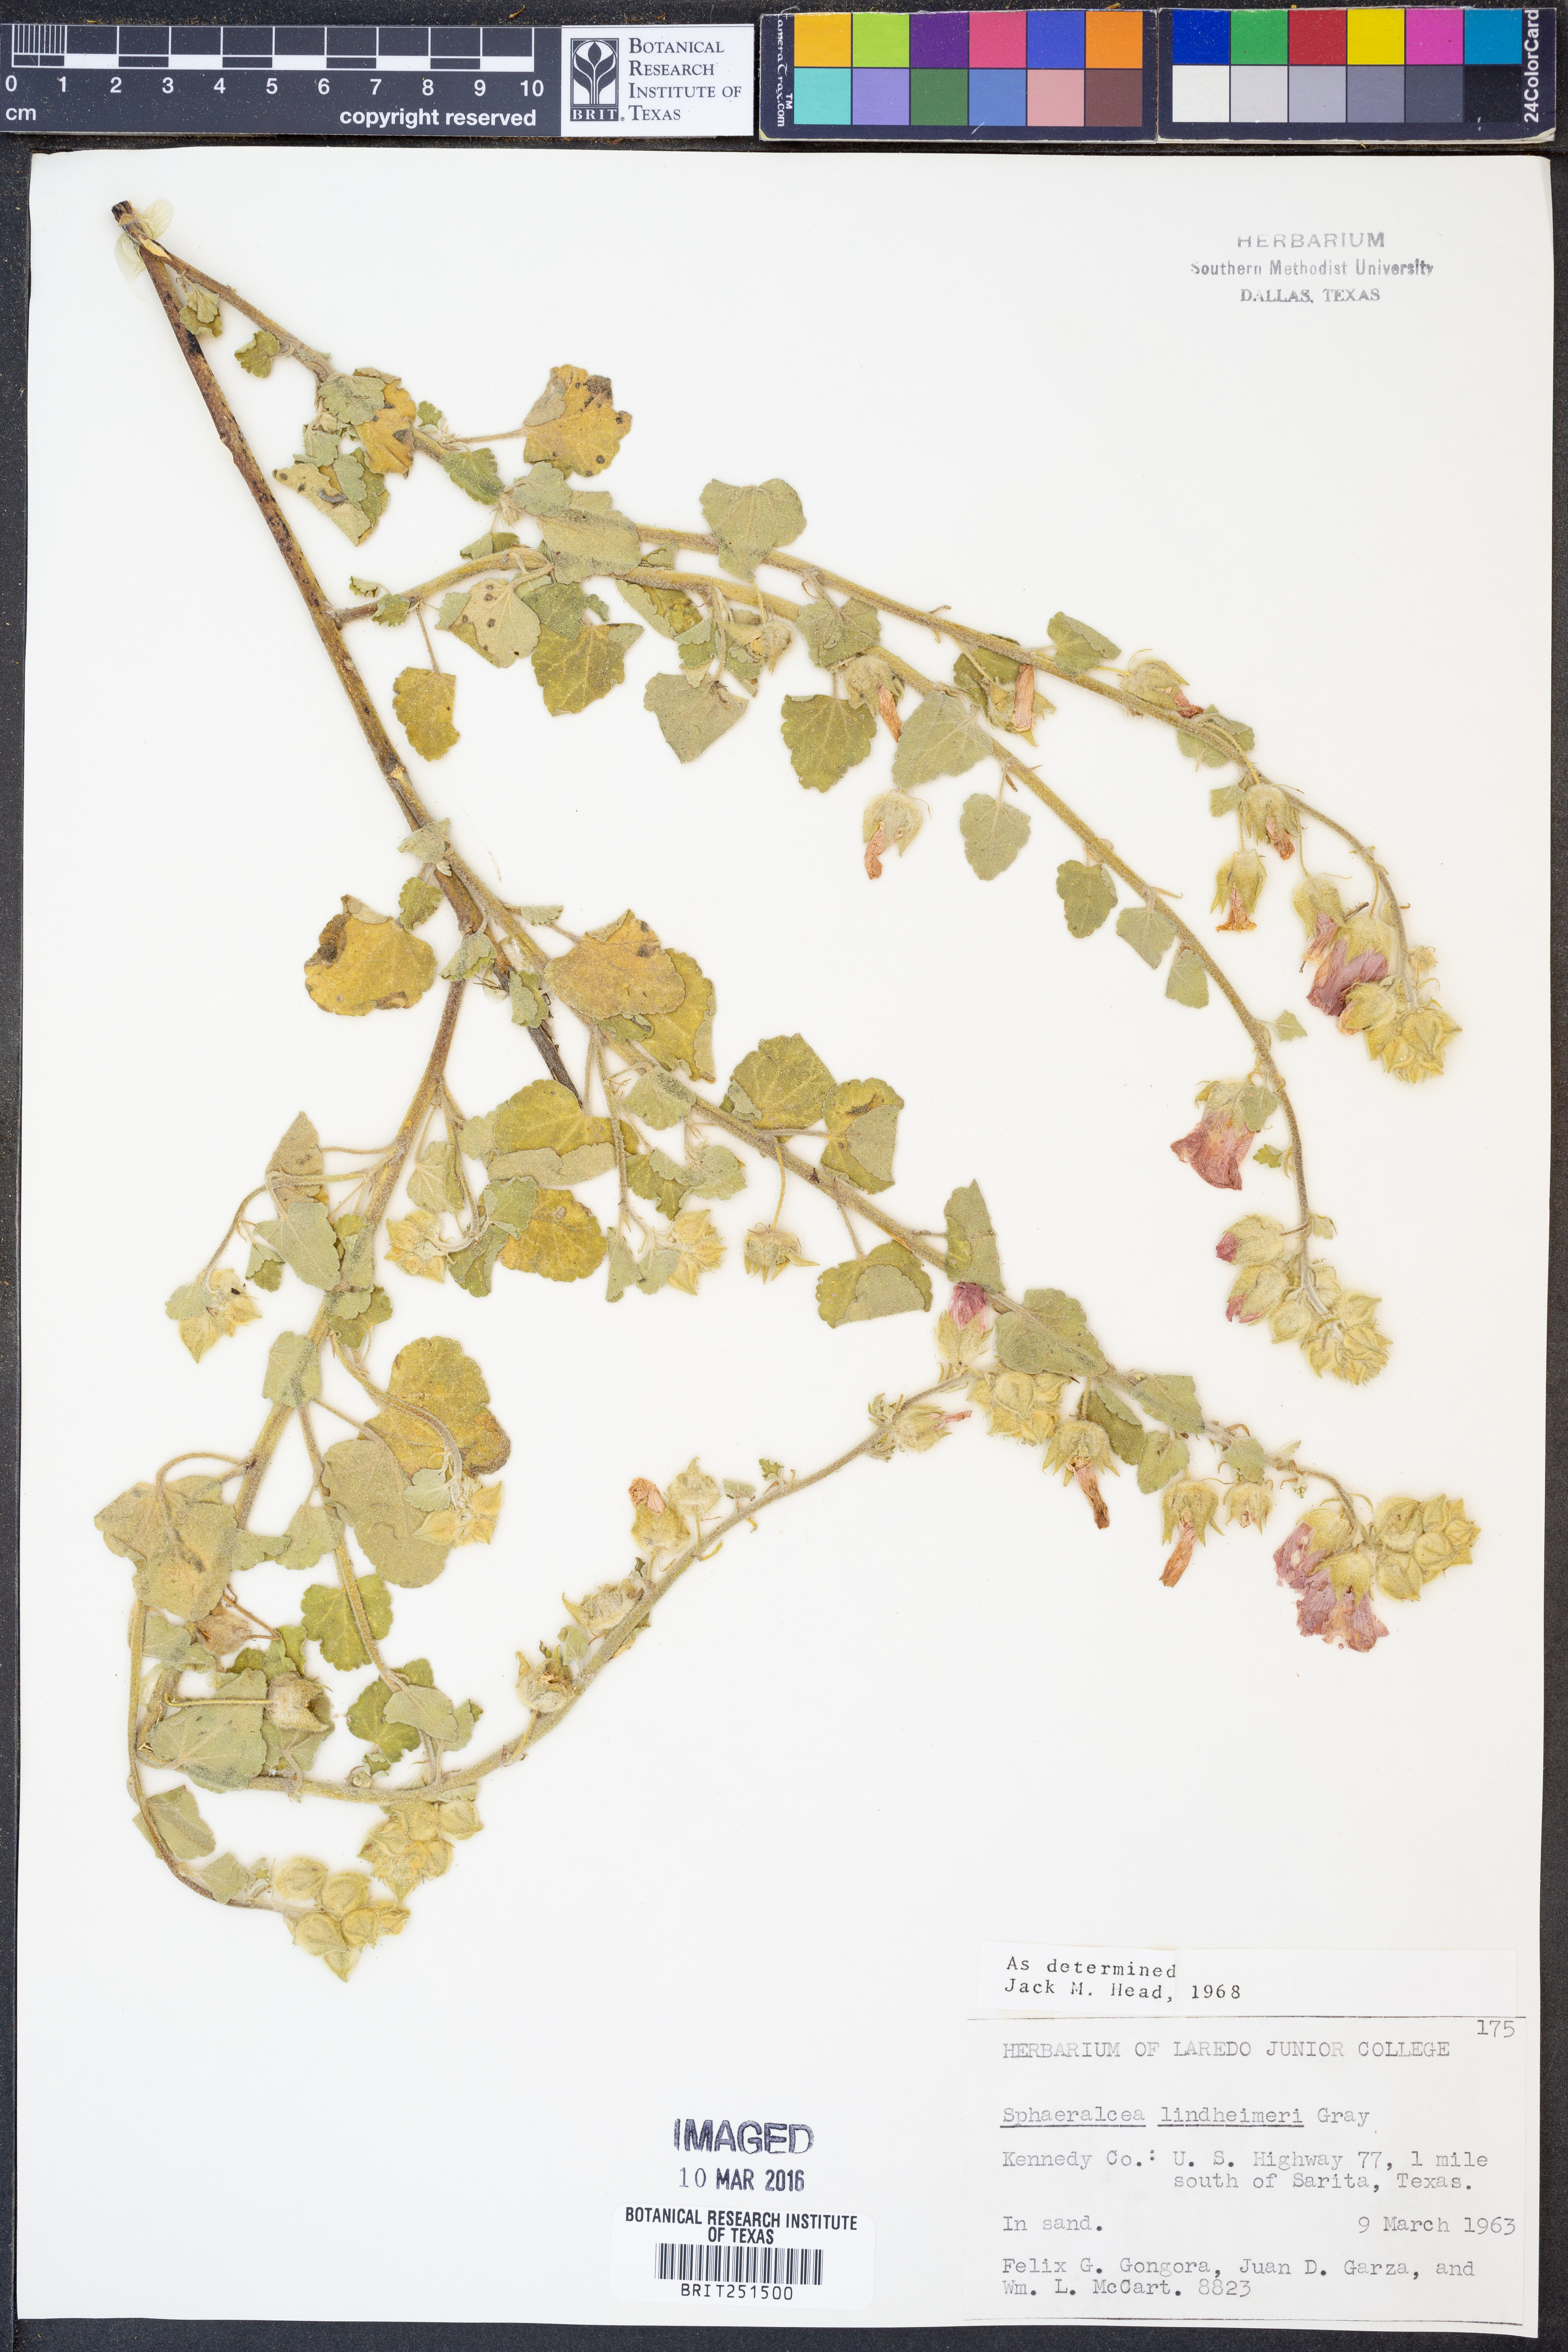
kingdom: Plantae
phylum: Tracheophyta
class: Magnoliopsida
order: Malvales
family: Malvaceae
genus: Sphaeralcea
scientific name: Sphaeralcea lindheimeri
